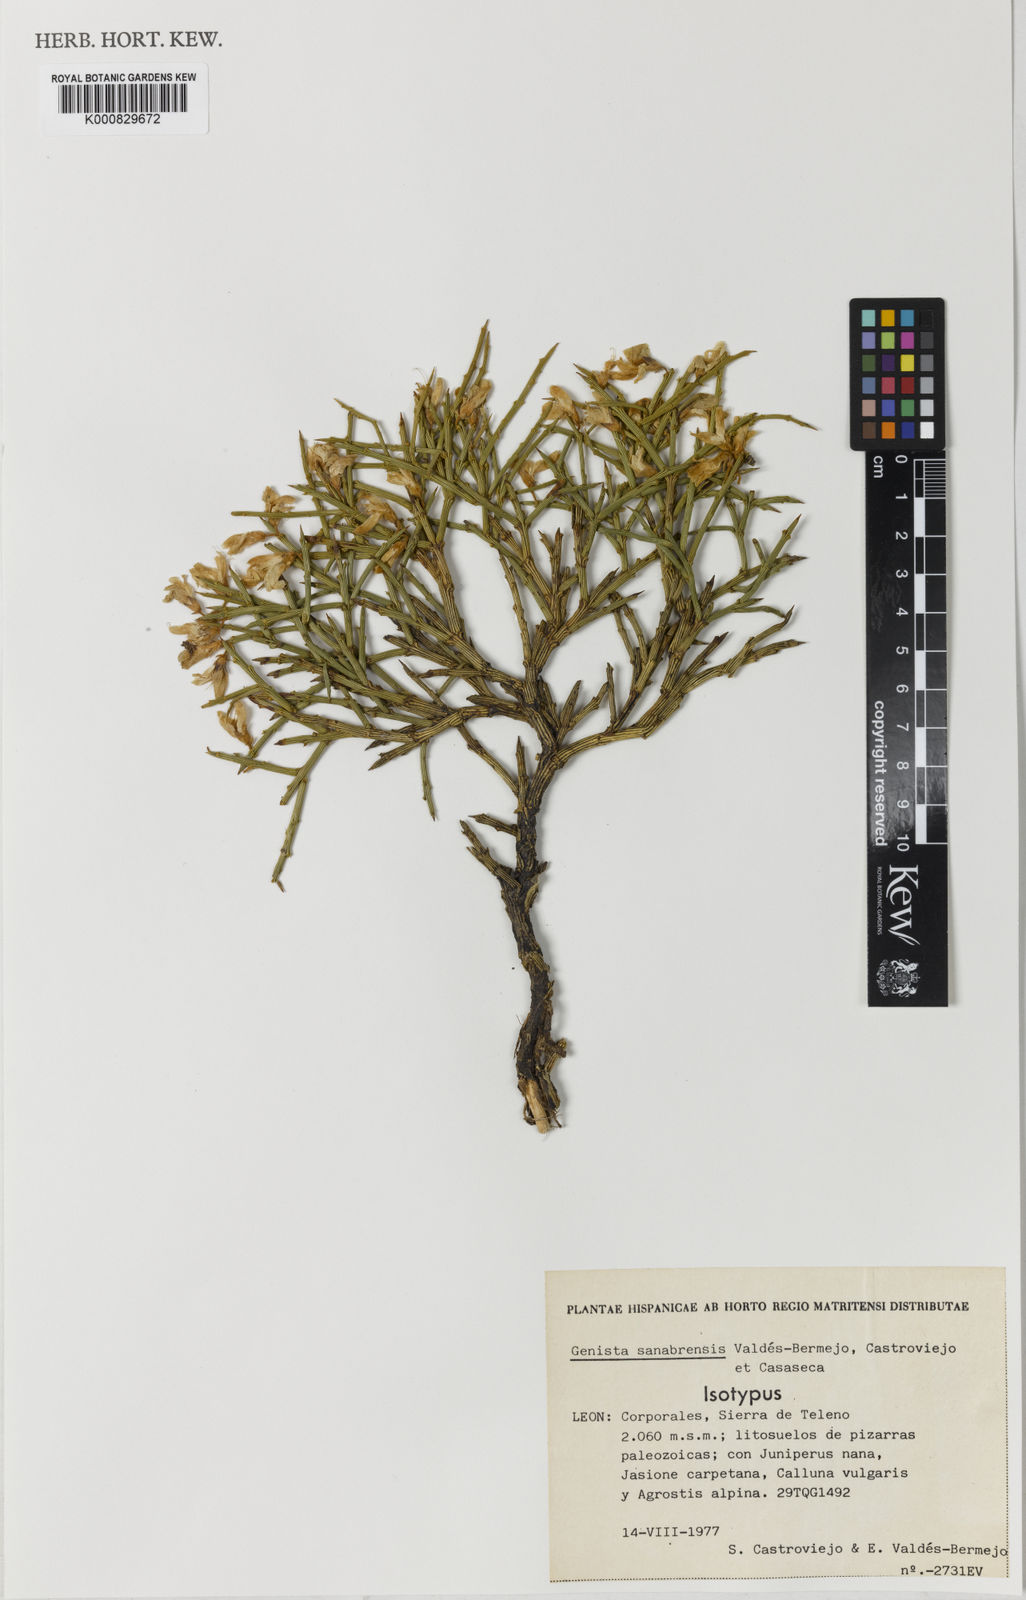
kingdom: Plantae
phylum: Tracheophyta
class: Magnoliopsida
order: Fabales
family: Fabaceae
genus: Genista
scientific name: Genista
